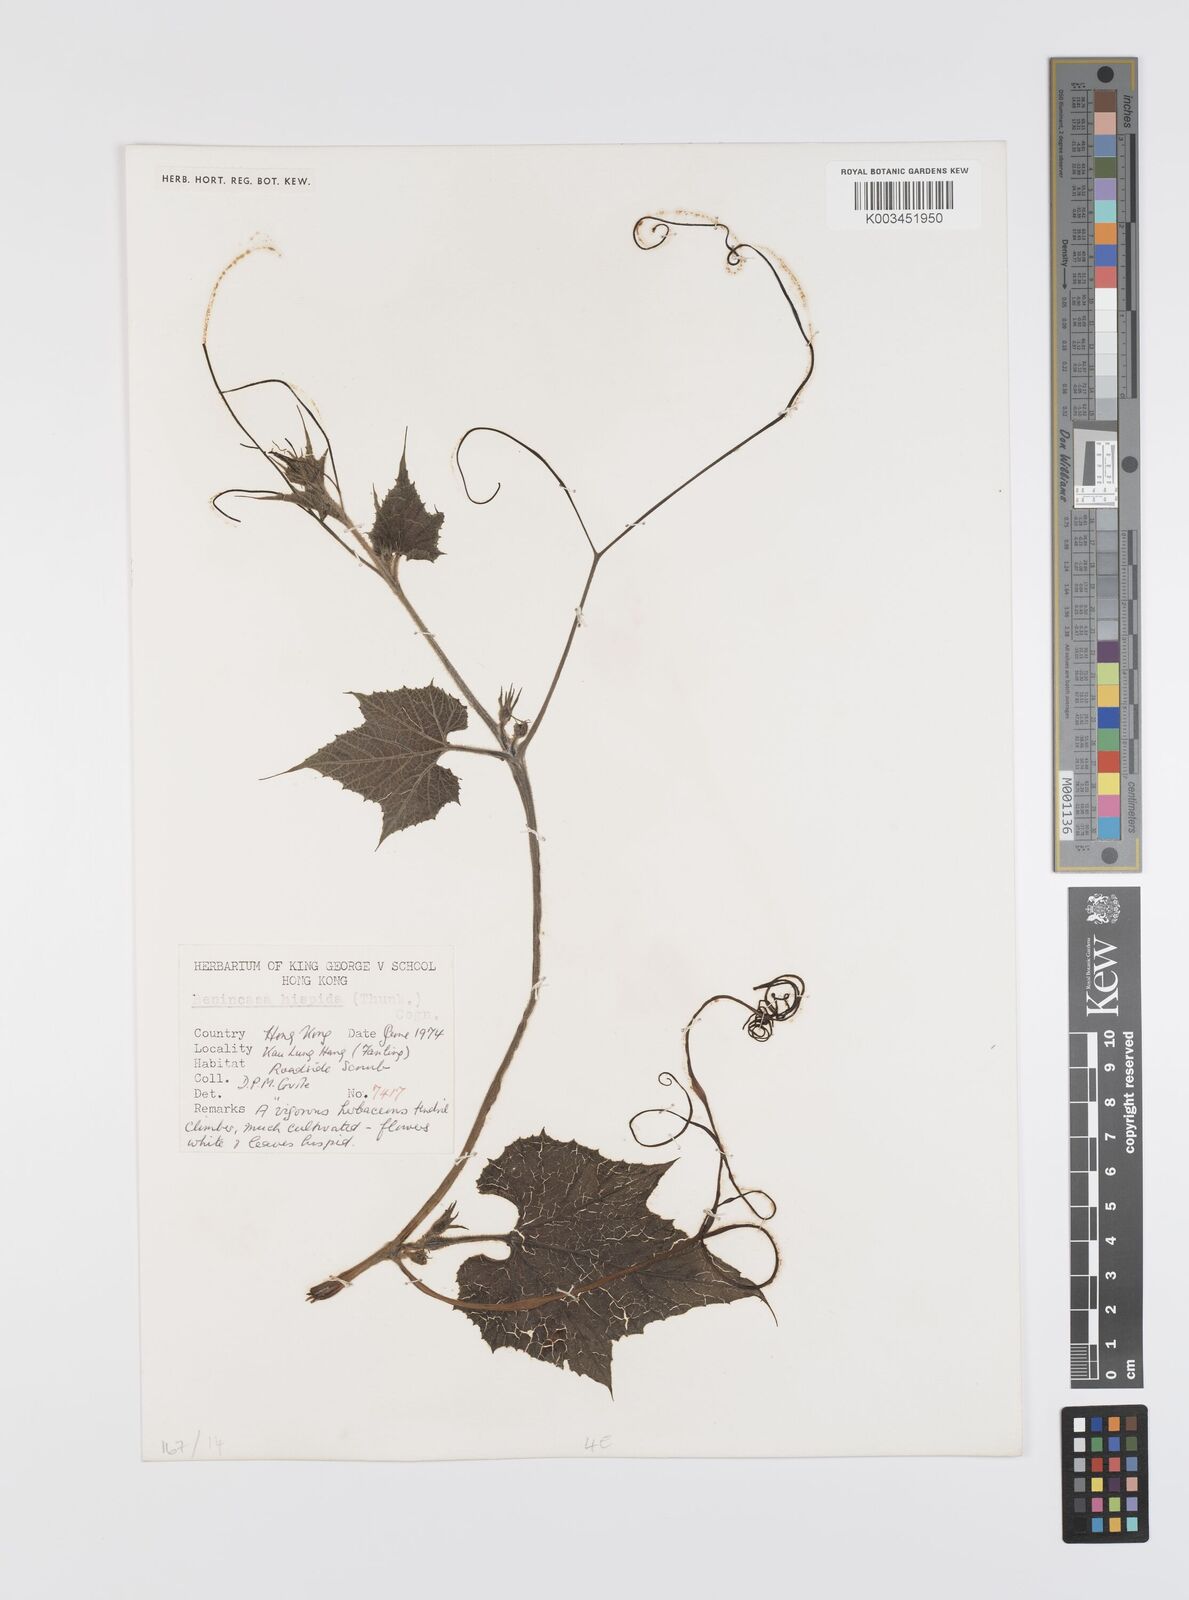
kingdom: Plantae
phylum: Tracheophyta
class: Magnoliopsida
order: Cucurbitales
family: Cucurbitaceae
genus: Benincasa
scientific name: Benincasa hispida
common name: Chinese-watermelon
